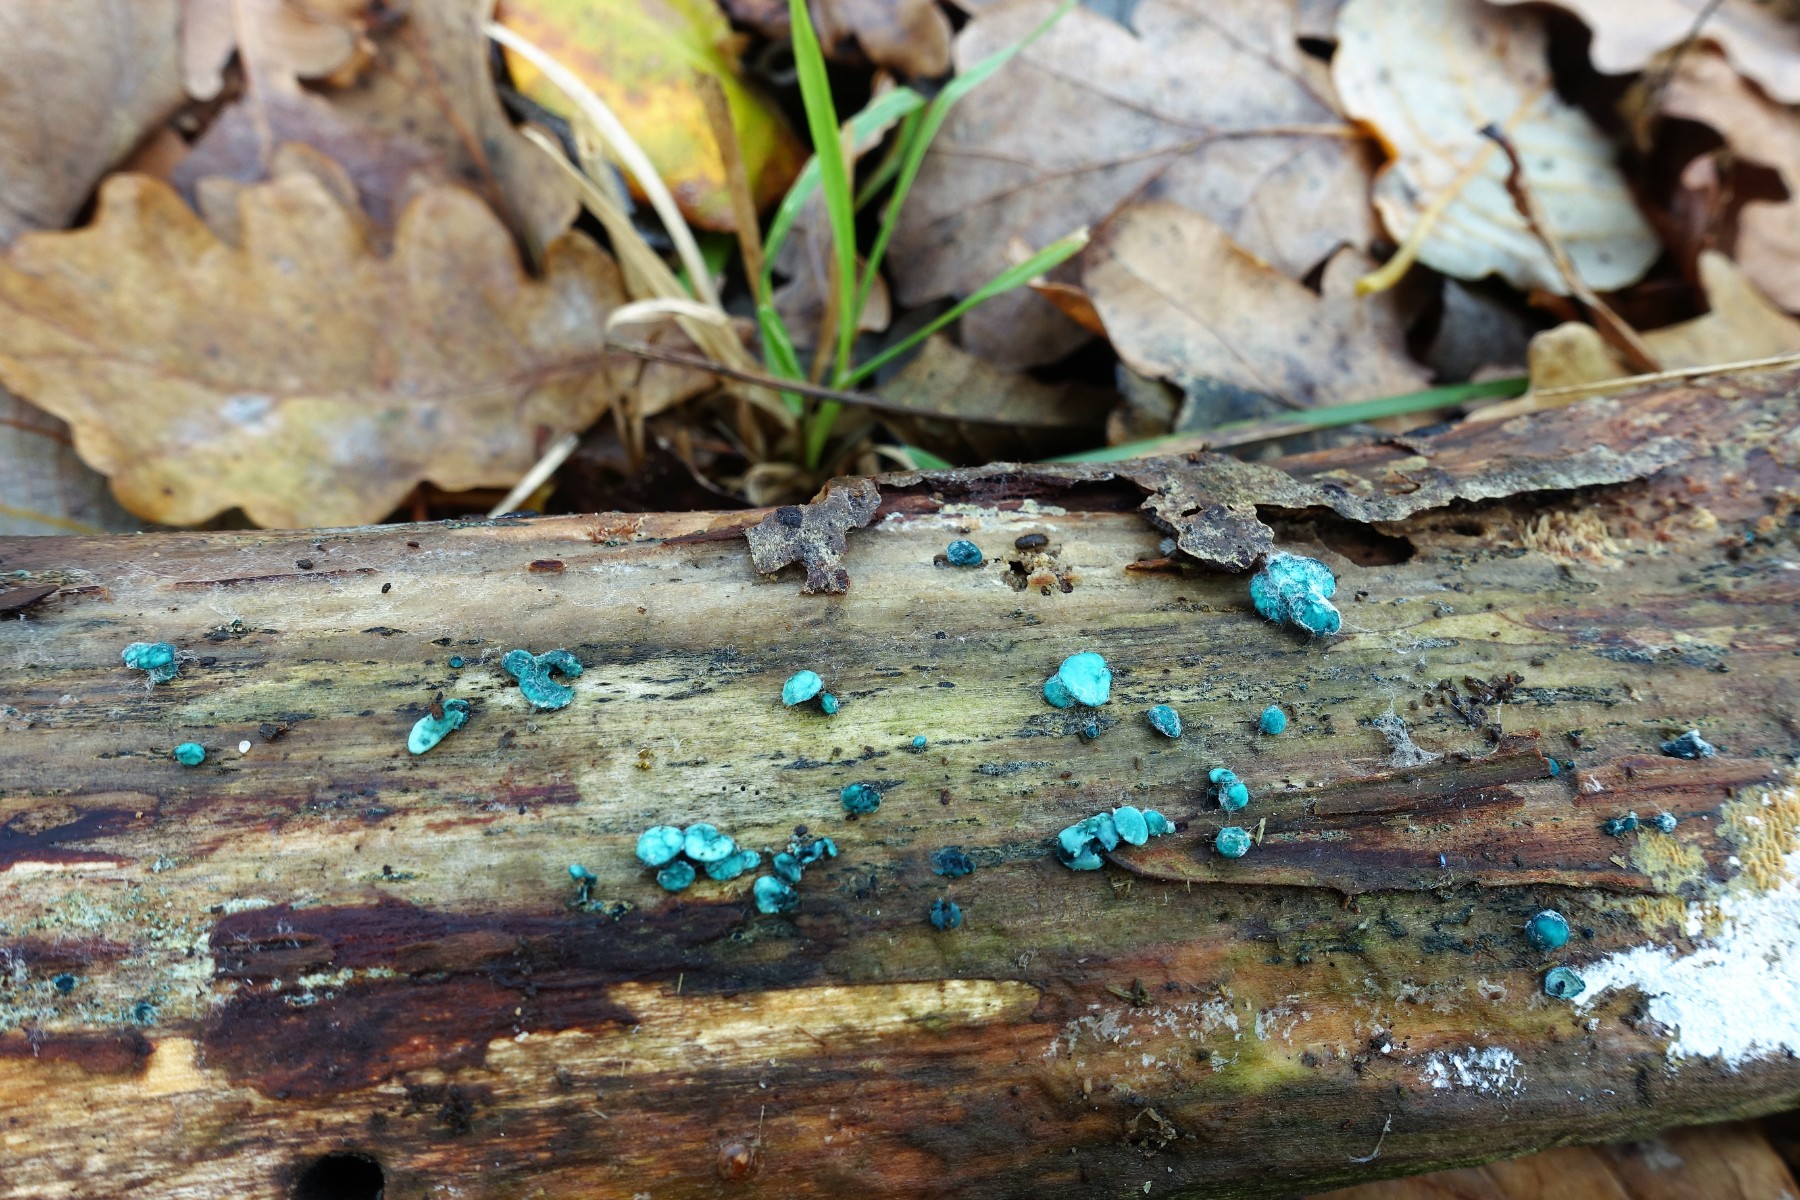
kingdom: Fungi
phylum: Ascomycota
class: Leotiomycetes
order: Helotiales
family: Chlorociboriaceae
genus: Chlorociboria
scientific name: Chlorociboria aeruginascens
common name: almindelig grønskive
